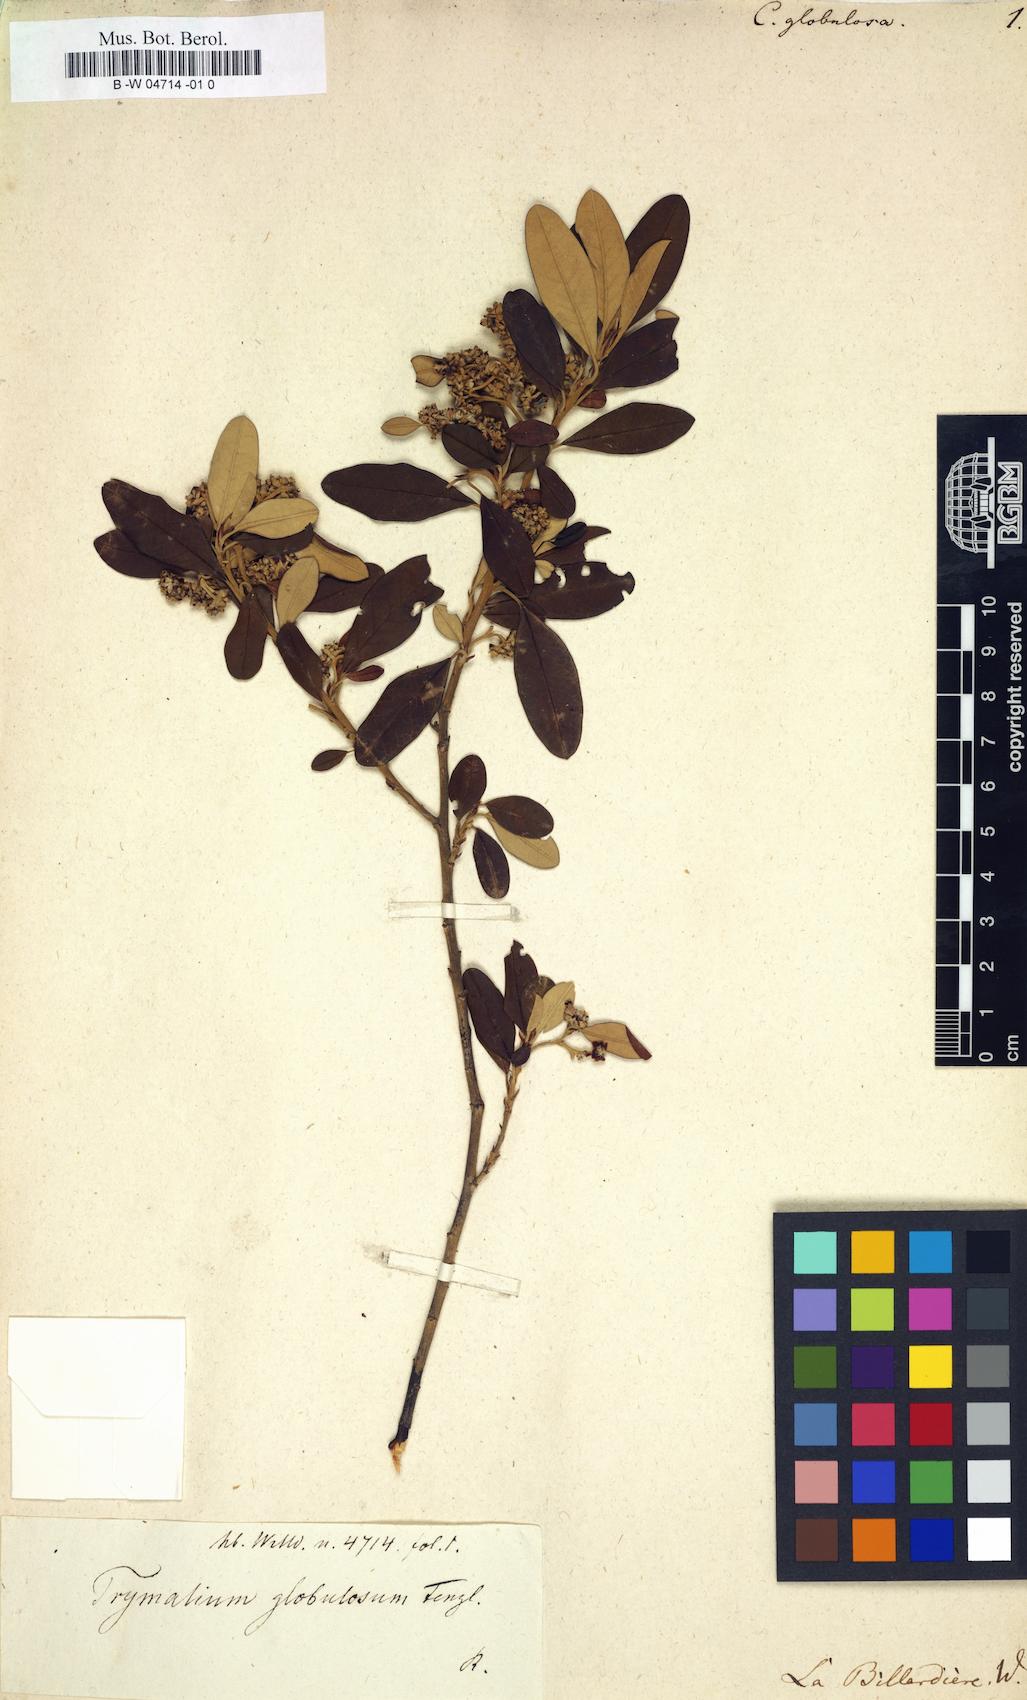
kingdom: Plantae
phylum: Tracheophyta
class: Magnoliopsida
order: Rosales
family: Rhamnaceae
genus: Spyridium
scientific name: Spyridium globulosum
